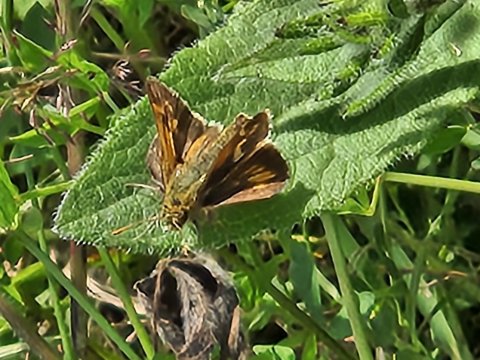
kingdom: Animalia
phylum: Arthropoda
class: Insecta
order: Lepidoptera
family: Hesperiidae
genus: Polites
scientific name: Polites coras
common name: Peck's Skipper
